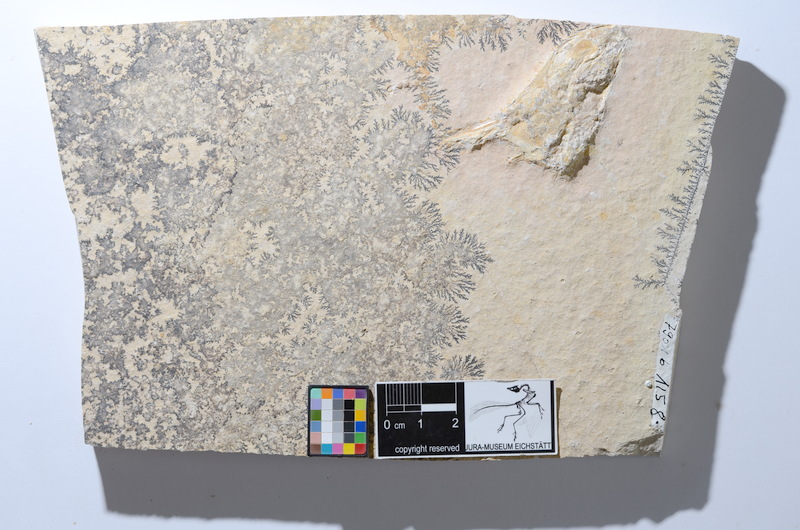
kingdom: Animalia
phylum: Chordata
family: Ascalaboidae
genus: Tharsis
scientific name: Tharsis dubius
